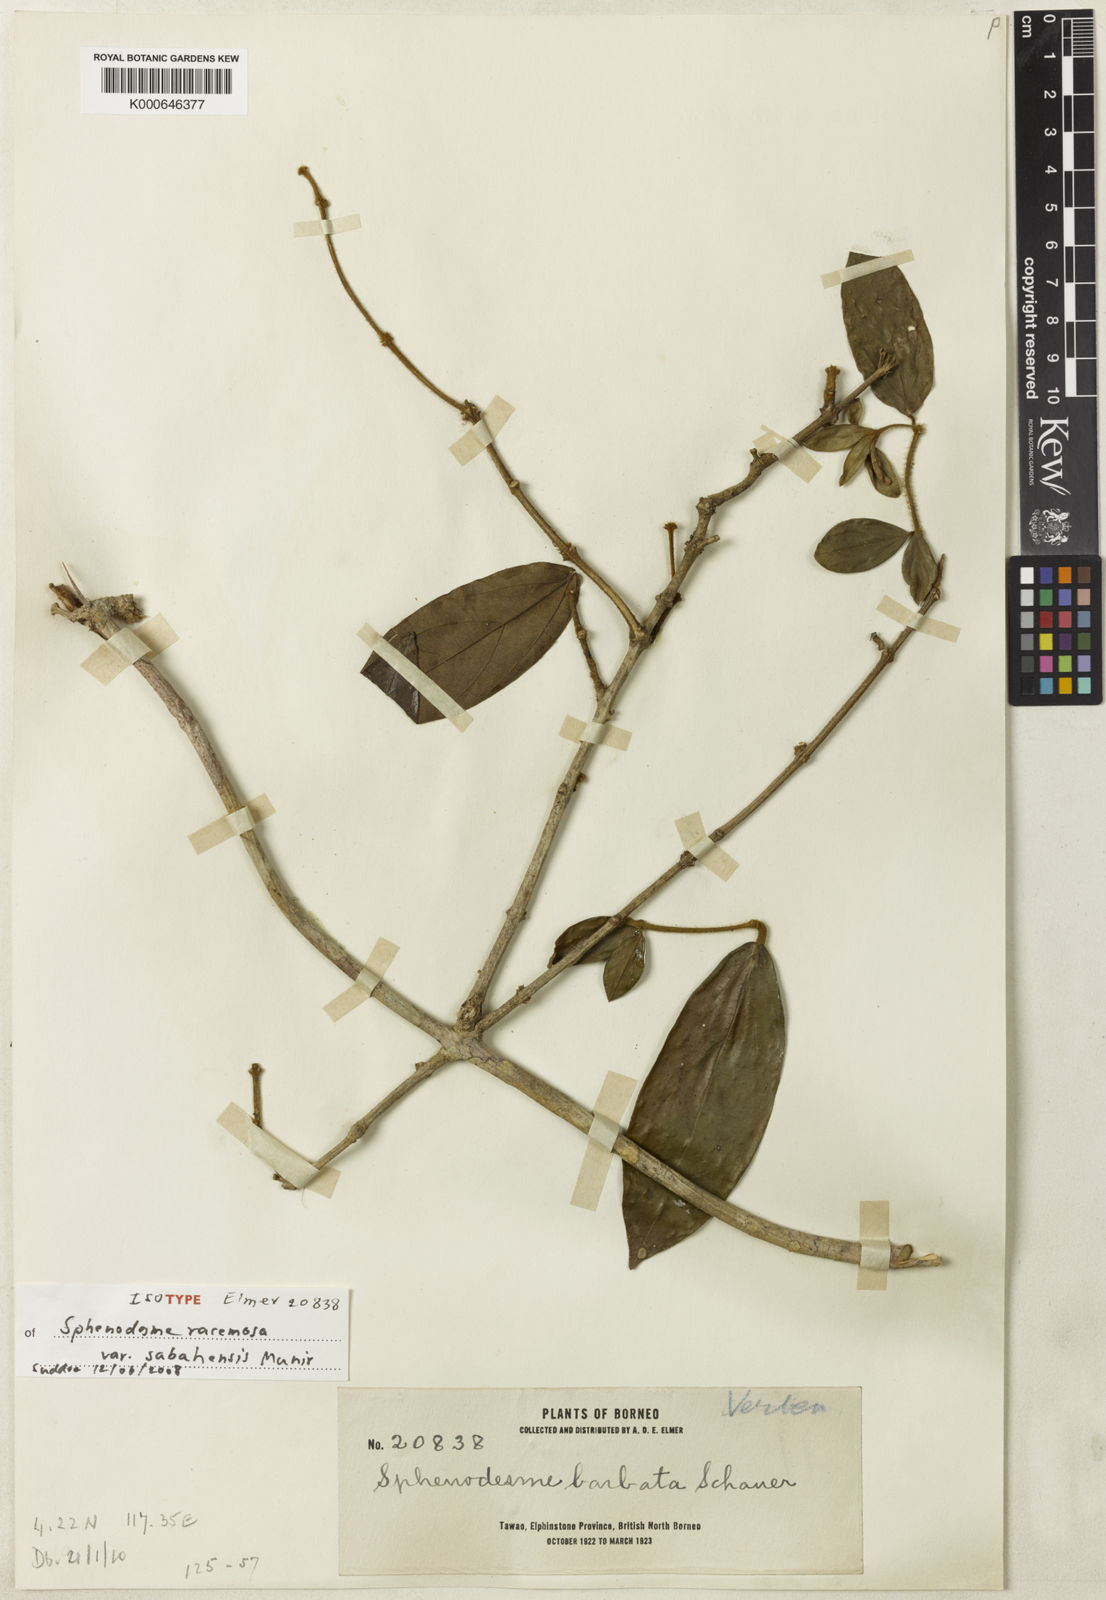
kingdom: Plantae
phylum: Tracheophyta
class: Magnoliopsida
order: Lamiales
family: Lamiaceae
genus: Sphenodesme
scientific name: Sphenodesme racemosa
